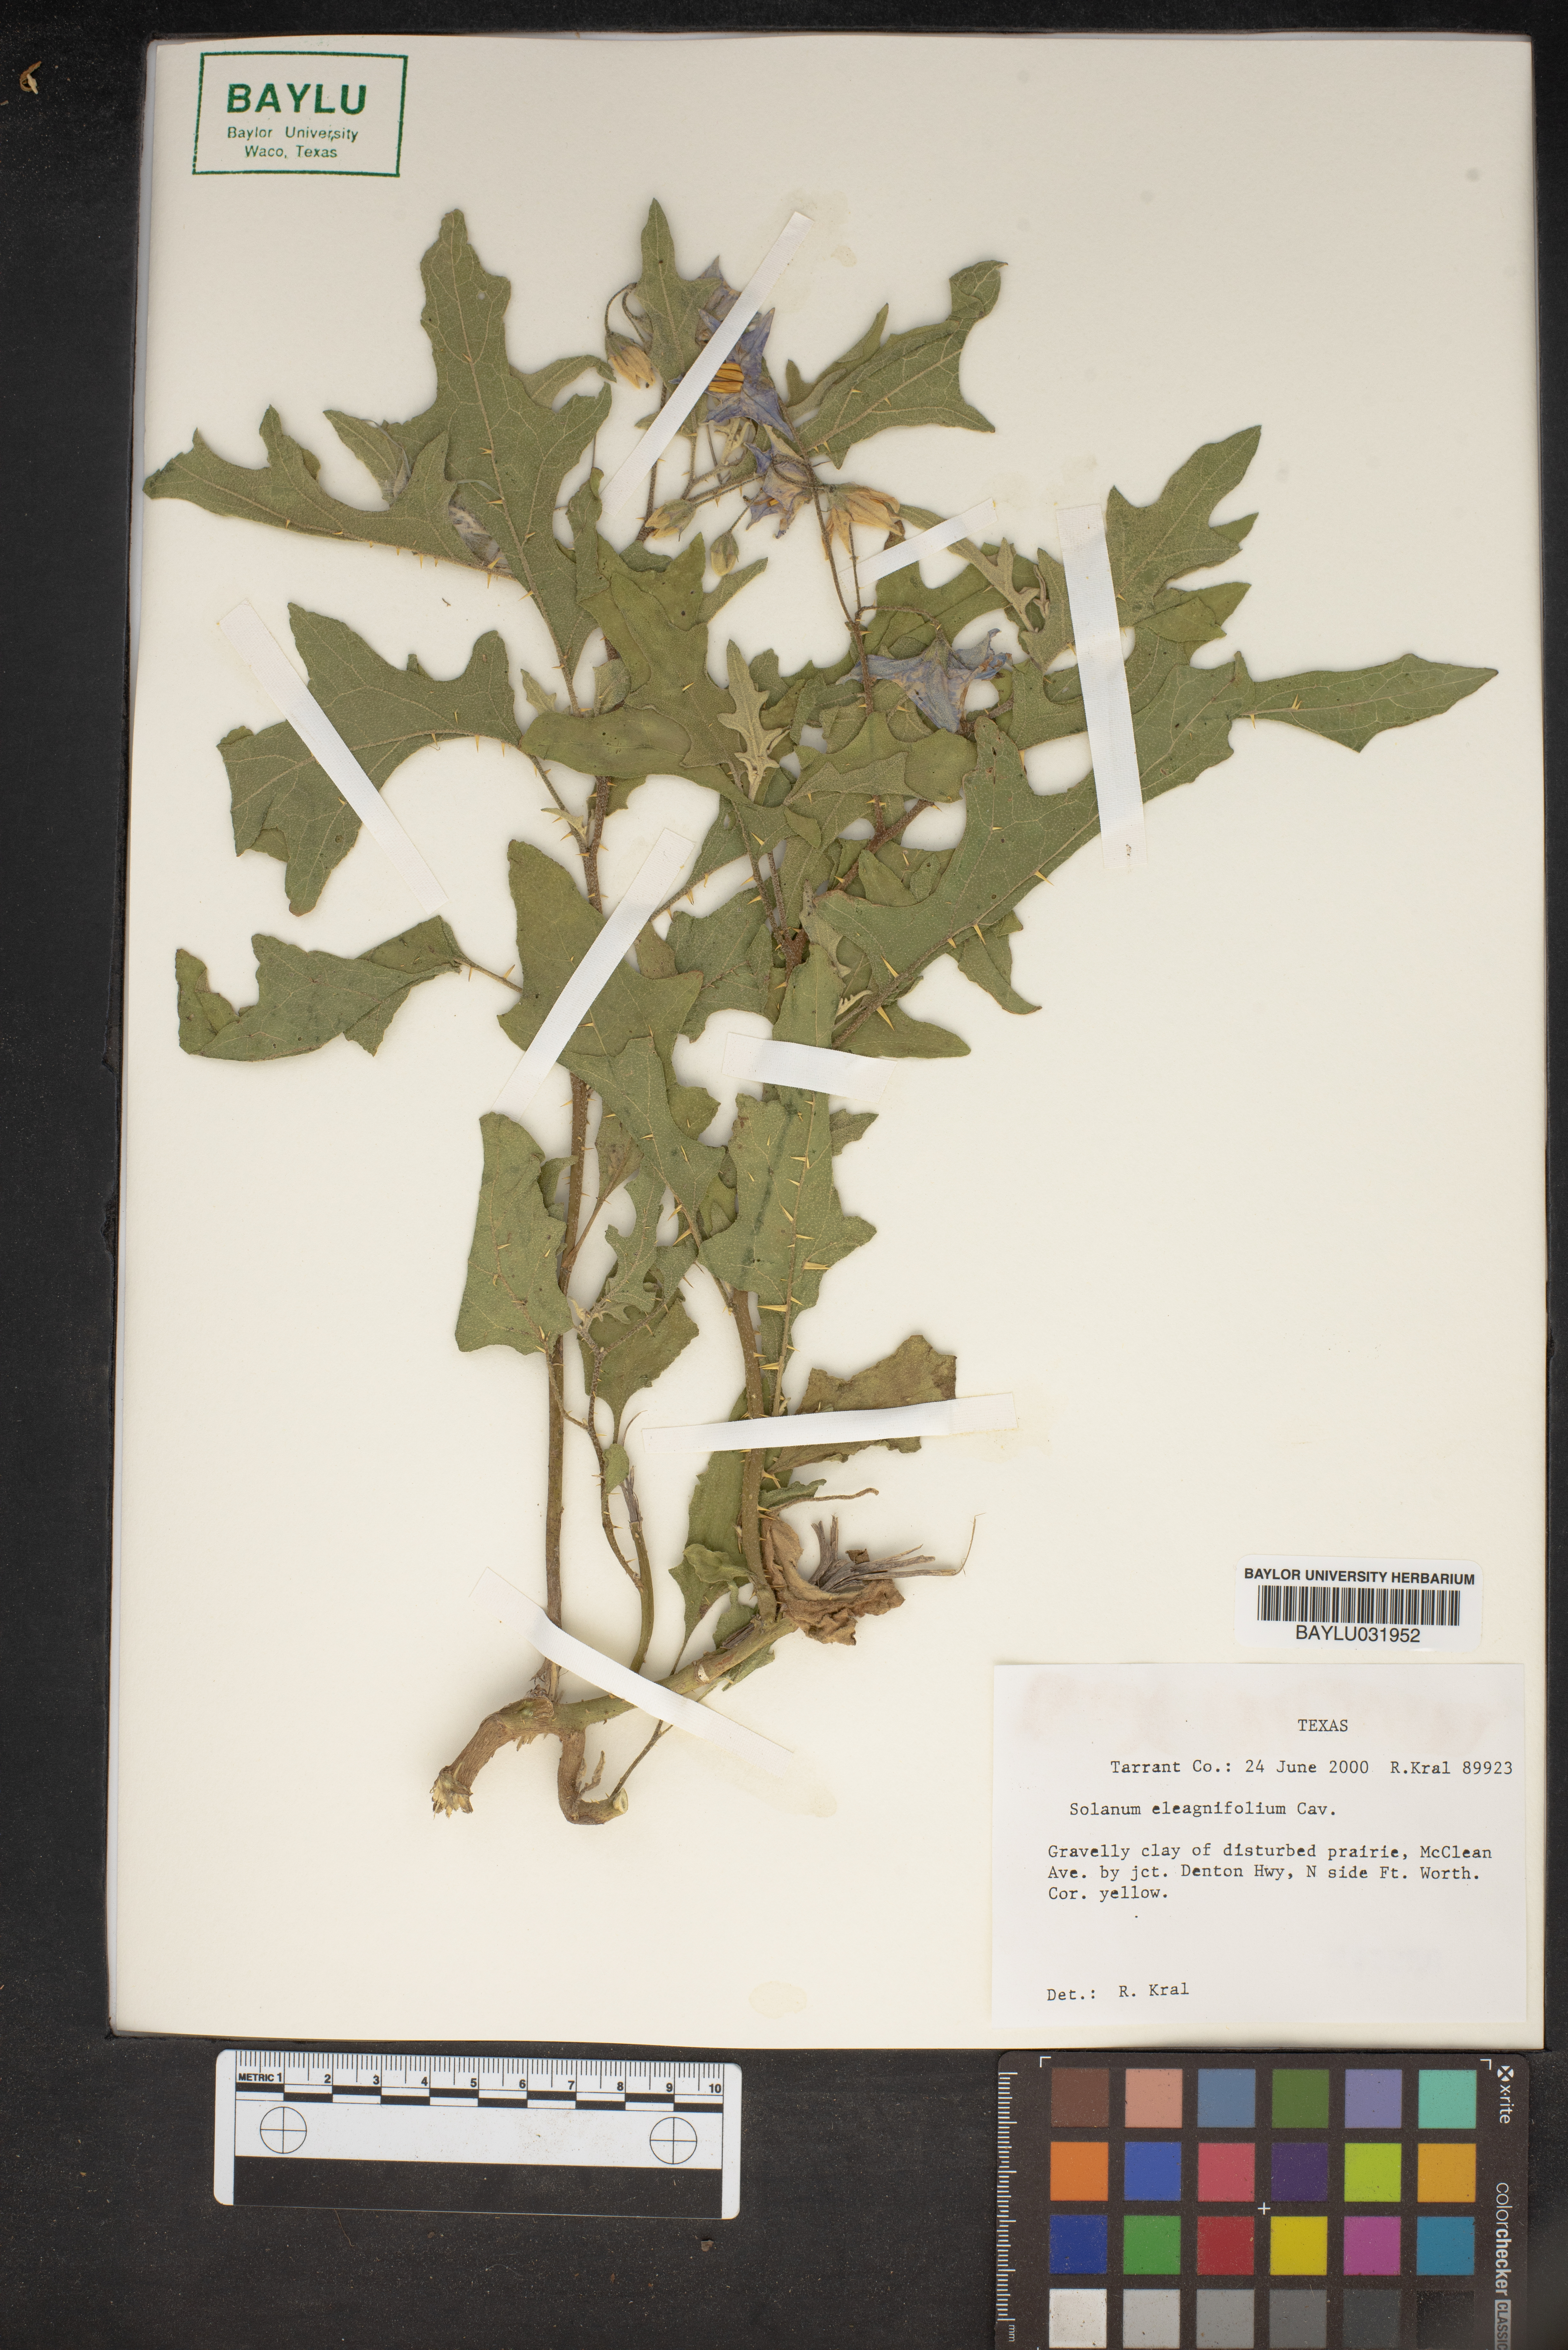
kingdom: Plantae
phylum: Tracheophyta
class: Magnoliopsida
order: Solanales
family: Solanaceae
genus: Solanum
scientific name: Solanum elaeagnifolium
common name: Silverleaf nightshade
